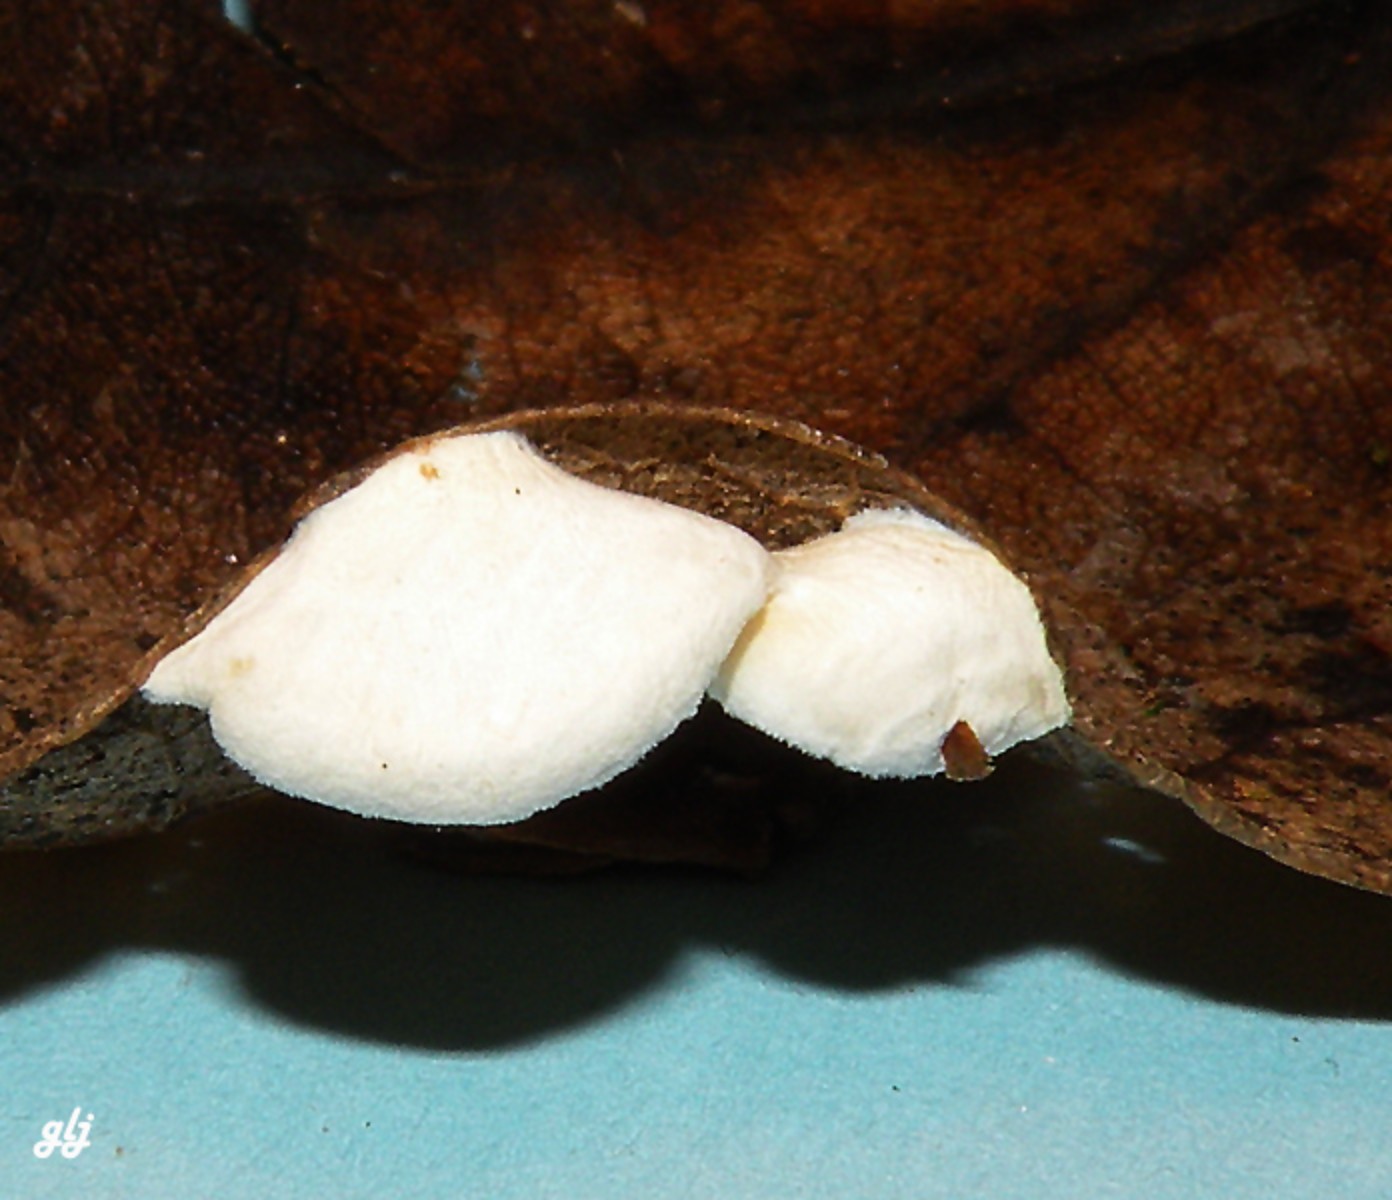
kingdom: Fungi
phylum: Basidiomycota
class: Agaricomycetes
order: Agaricales
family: Crepidotaceae
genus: Crepidotus
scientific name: Crepidotus
